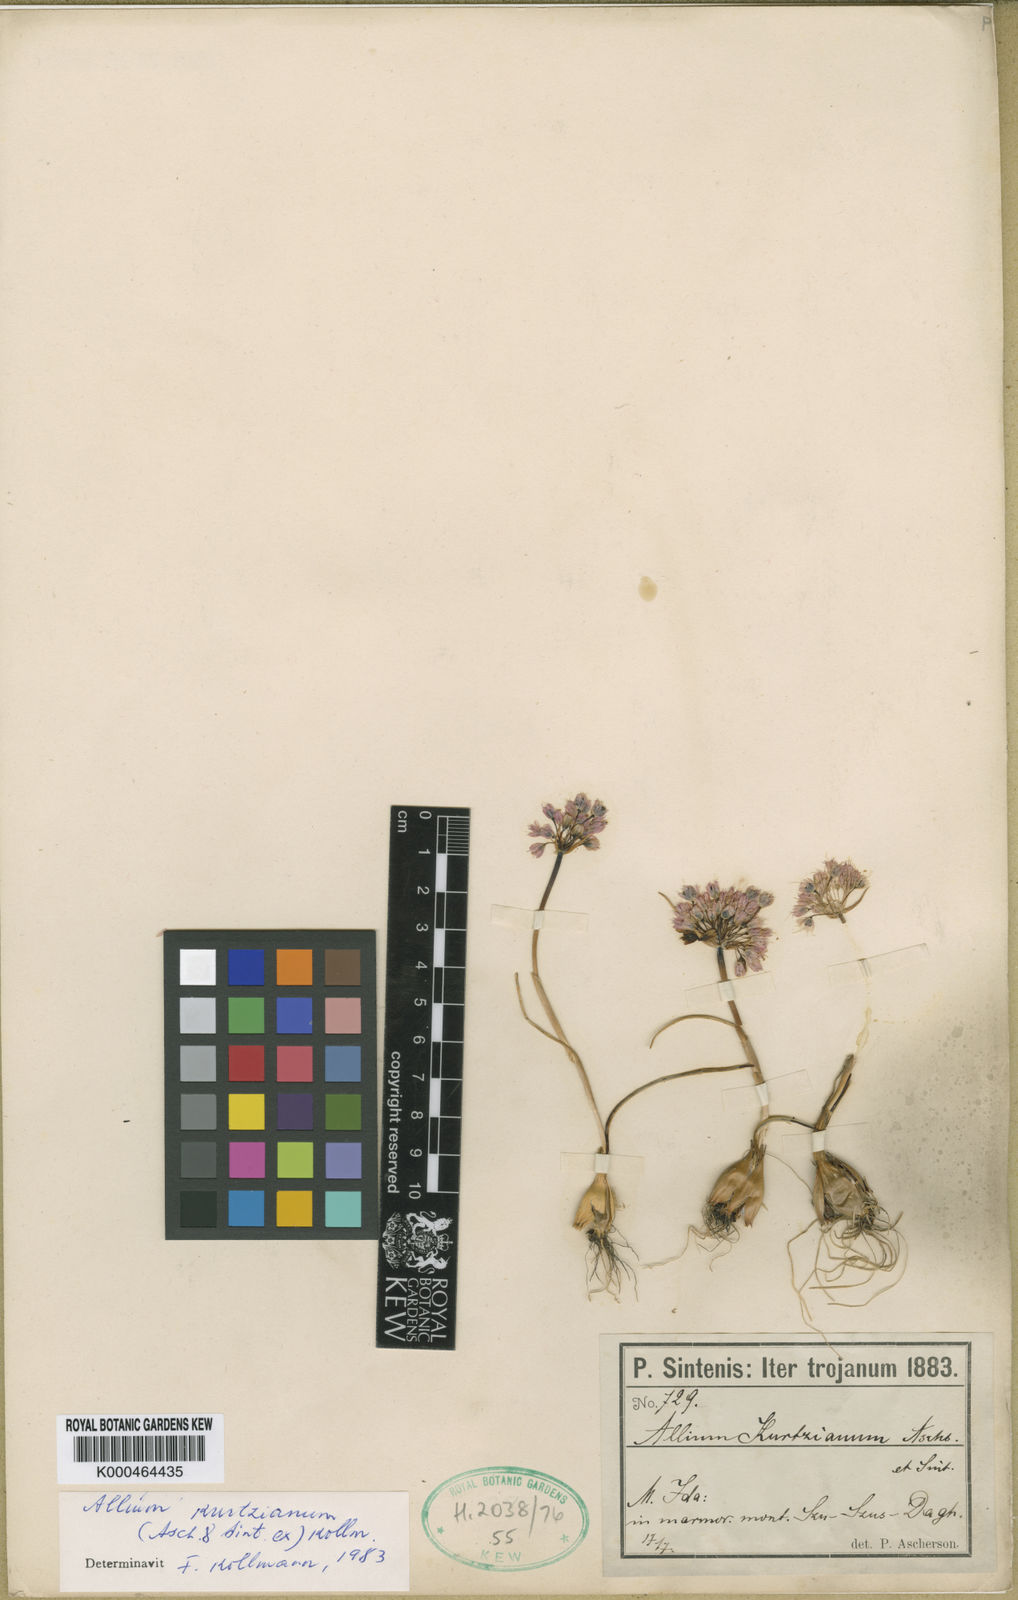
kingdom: Plantae
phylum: Tracheophyta
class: Liliopsida
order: Asparagales
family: Amaryllidaceae
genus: Allium
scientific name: Allium kurtzianum
